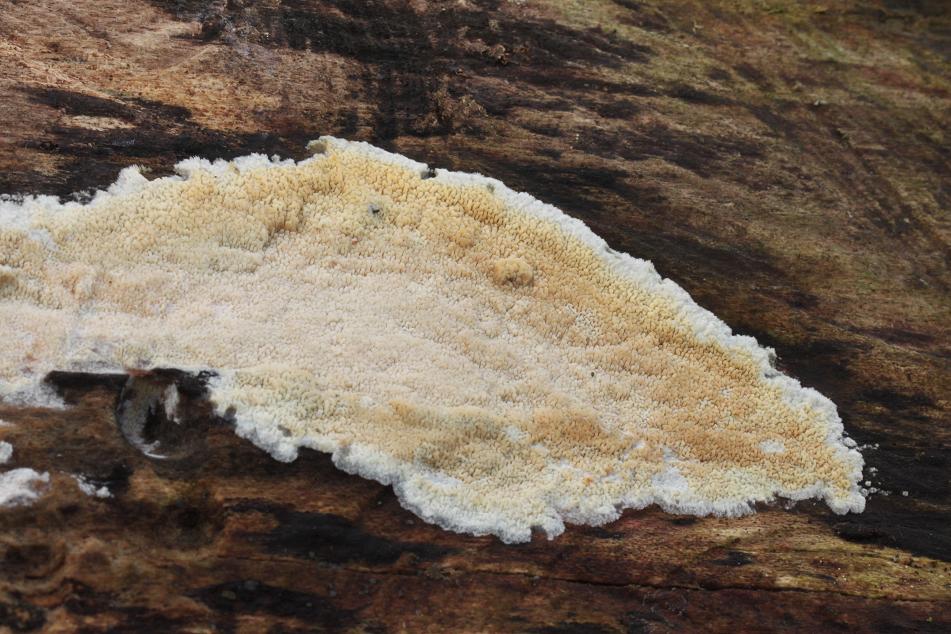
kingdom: Fungi
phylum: Basidiomycota
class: Agaricomycetes
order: Polyporales
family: Meruliaceae
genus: Phlebia
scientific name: Phlebia rufa
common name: ege-åresvamp
